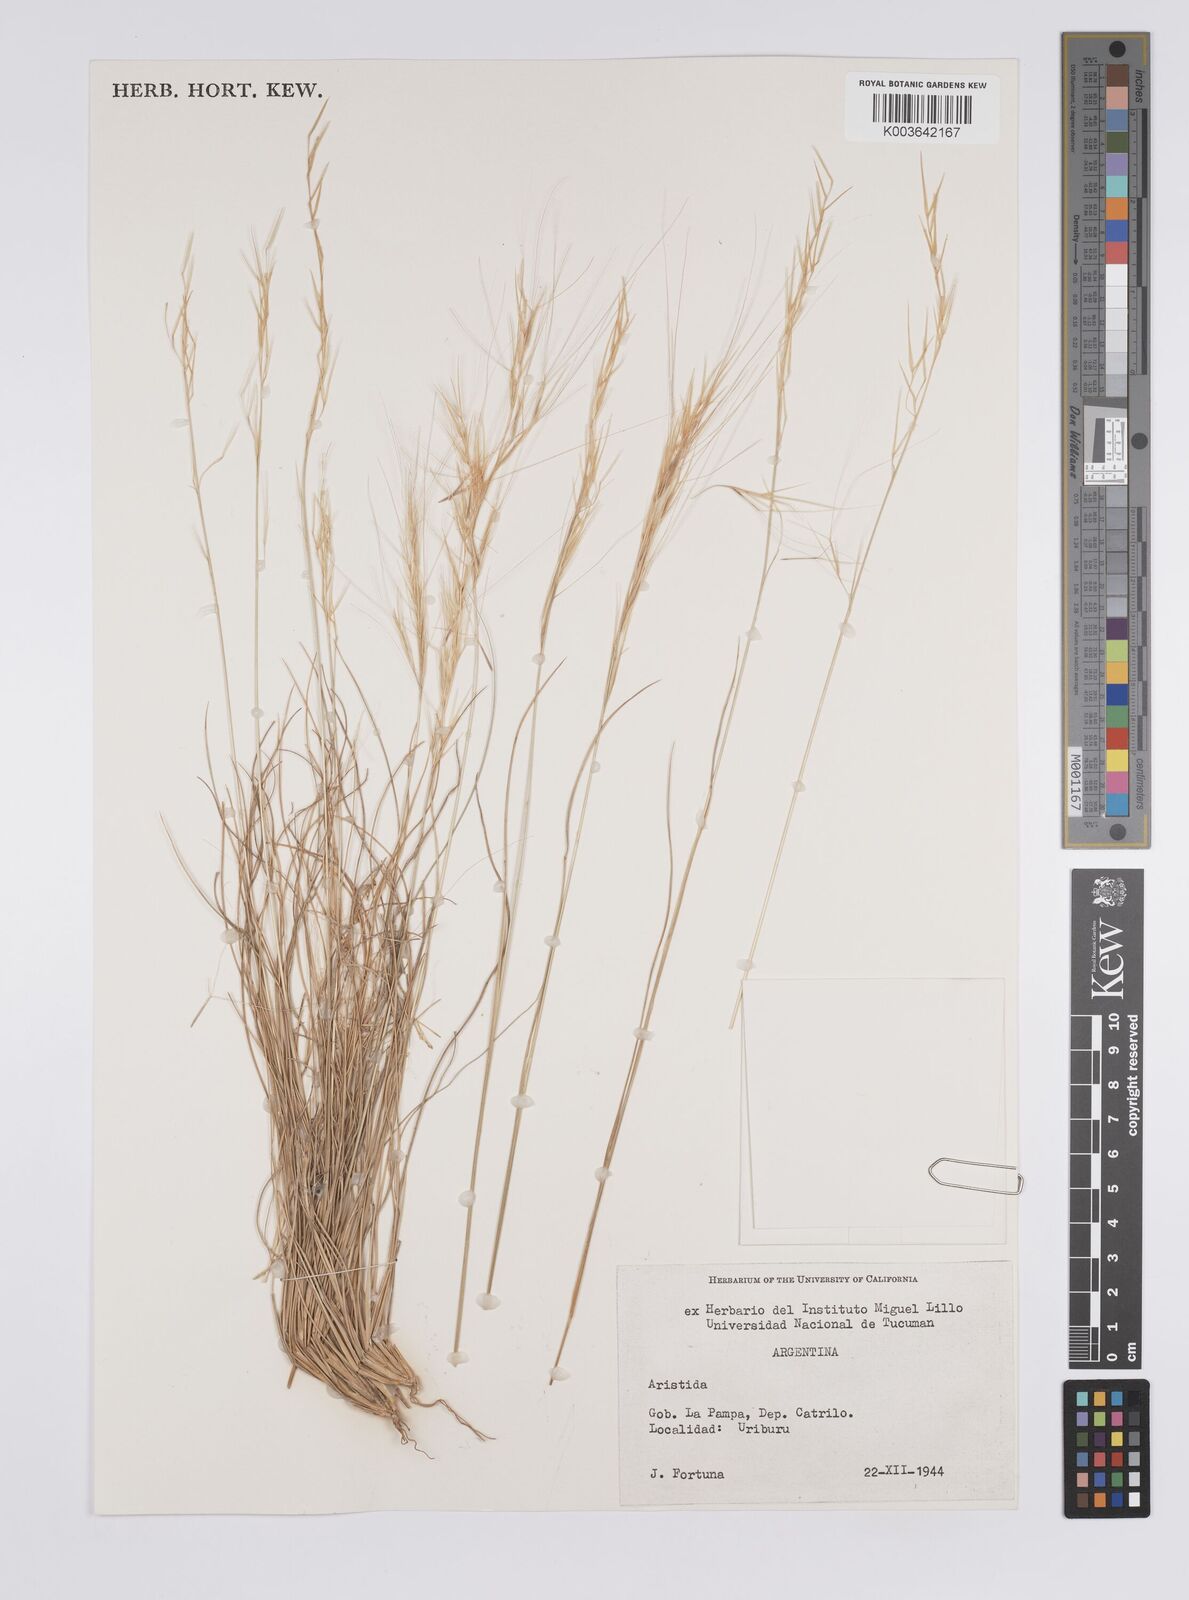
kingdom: Plantae
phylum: Tracheophyta
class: Liliopsida
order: Poales
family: Poaceae
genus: Aristida
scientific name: Aristida
